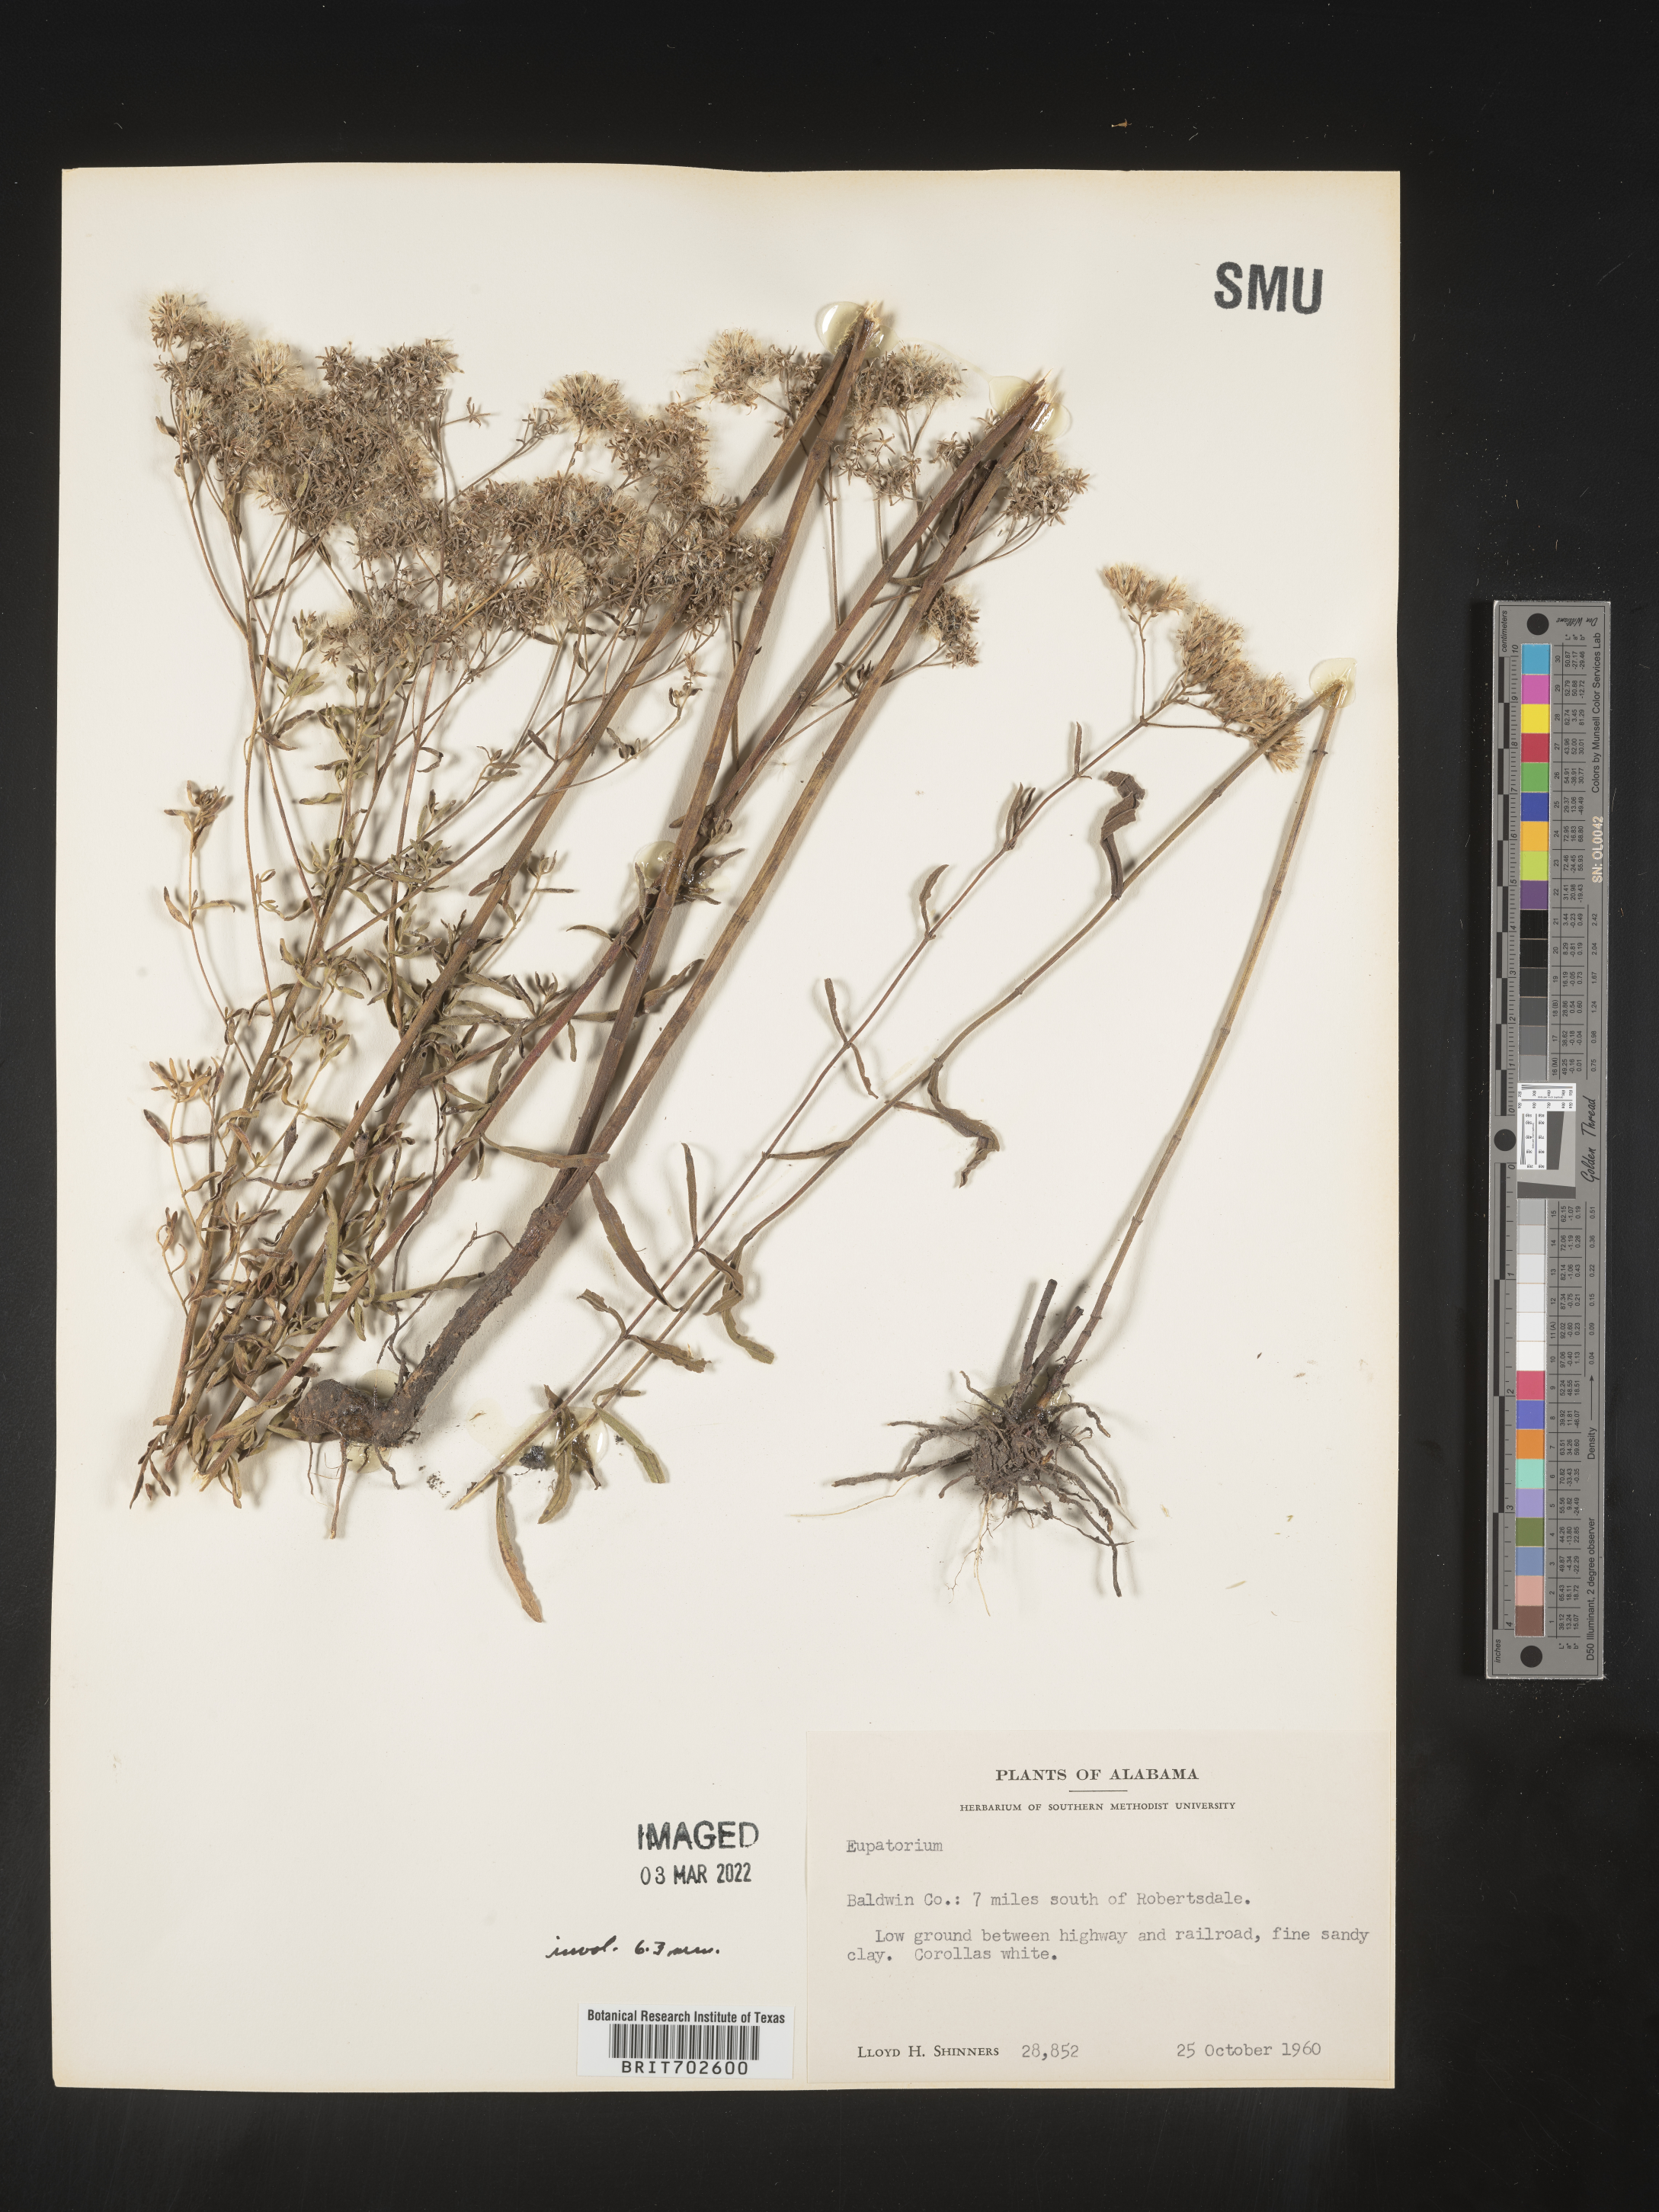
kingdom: Plantae
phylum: Tracheophyta
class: Magnoliopsida
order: Asterales
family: Asteraceae
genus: Eupatorium
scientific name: Eupatorium
